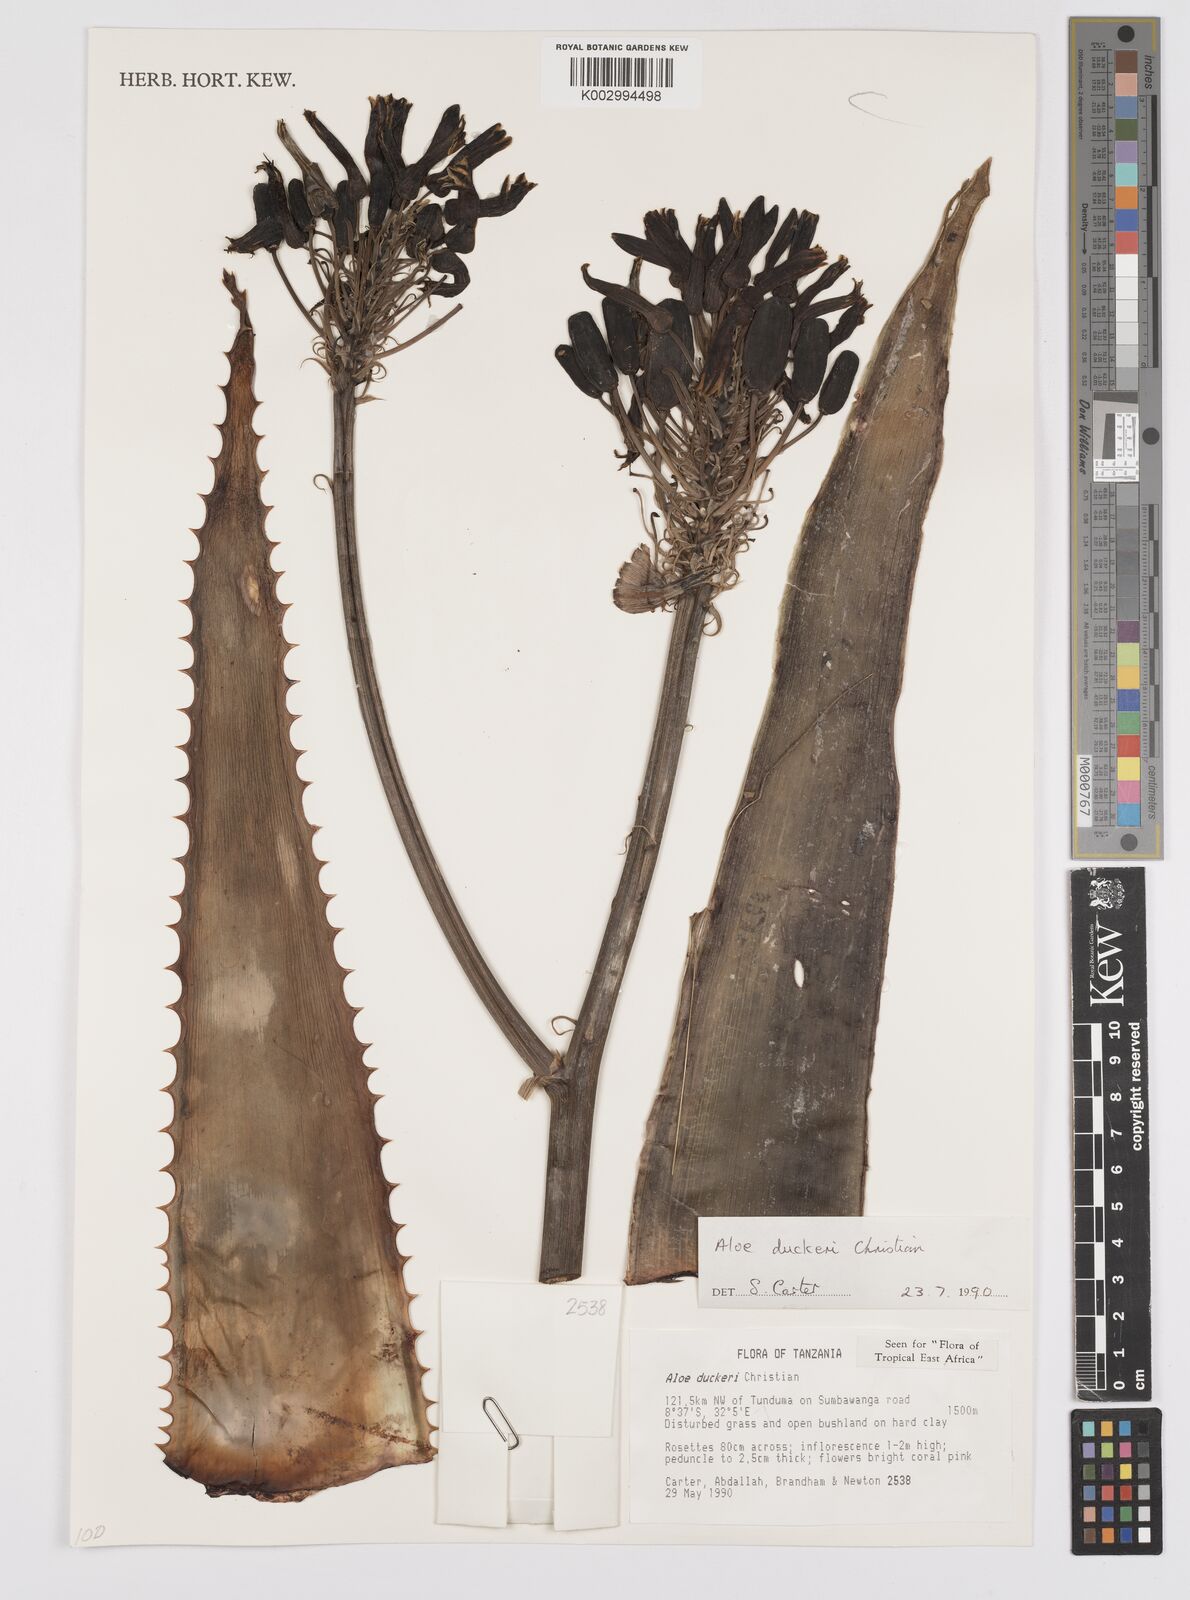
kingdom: Plantae
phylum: Tracheophyta
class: Liliopsida
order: Asparagales
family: Asphodelaceae
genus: Aloe
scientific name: Aloe duckeri
